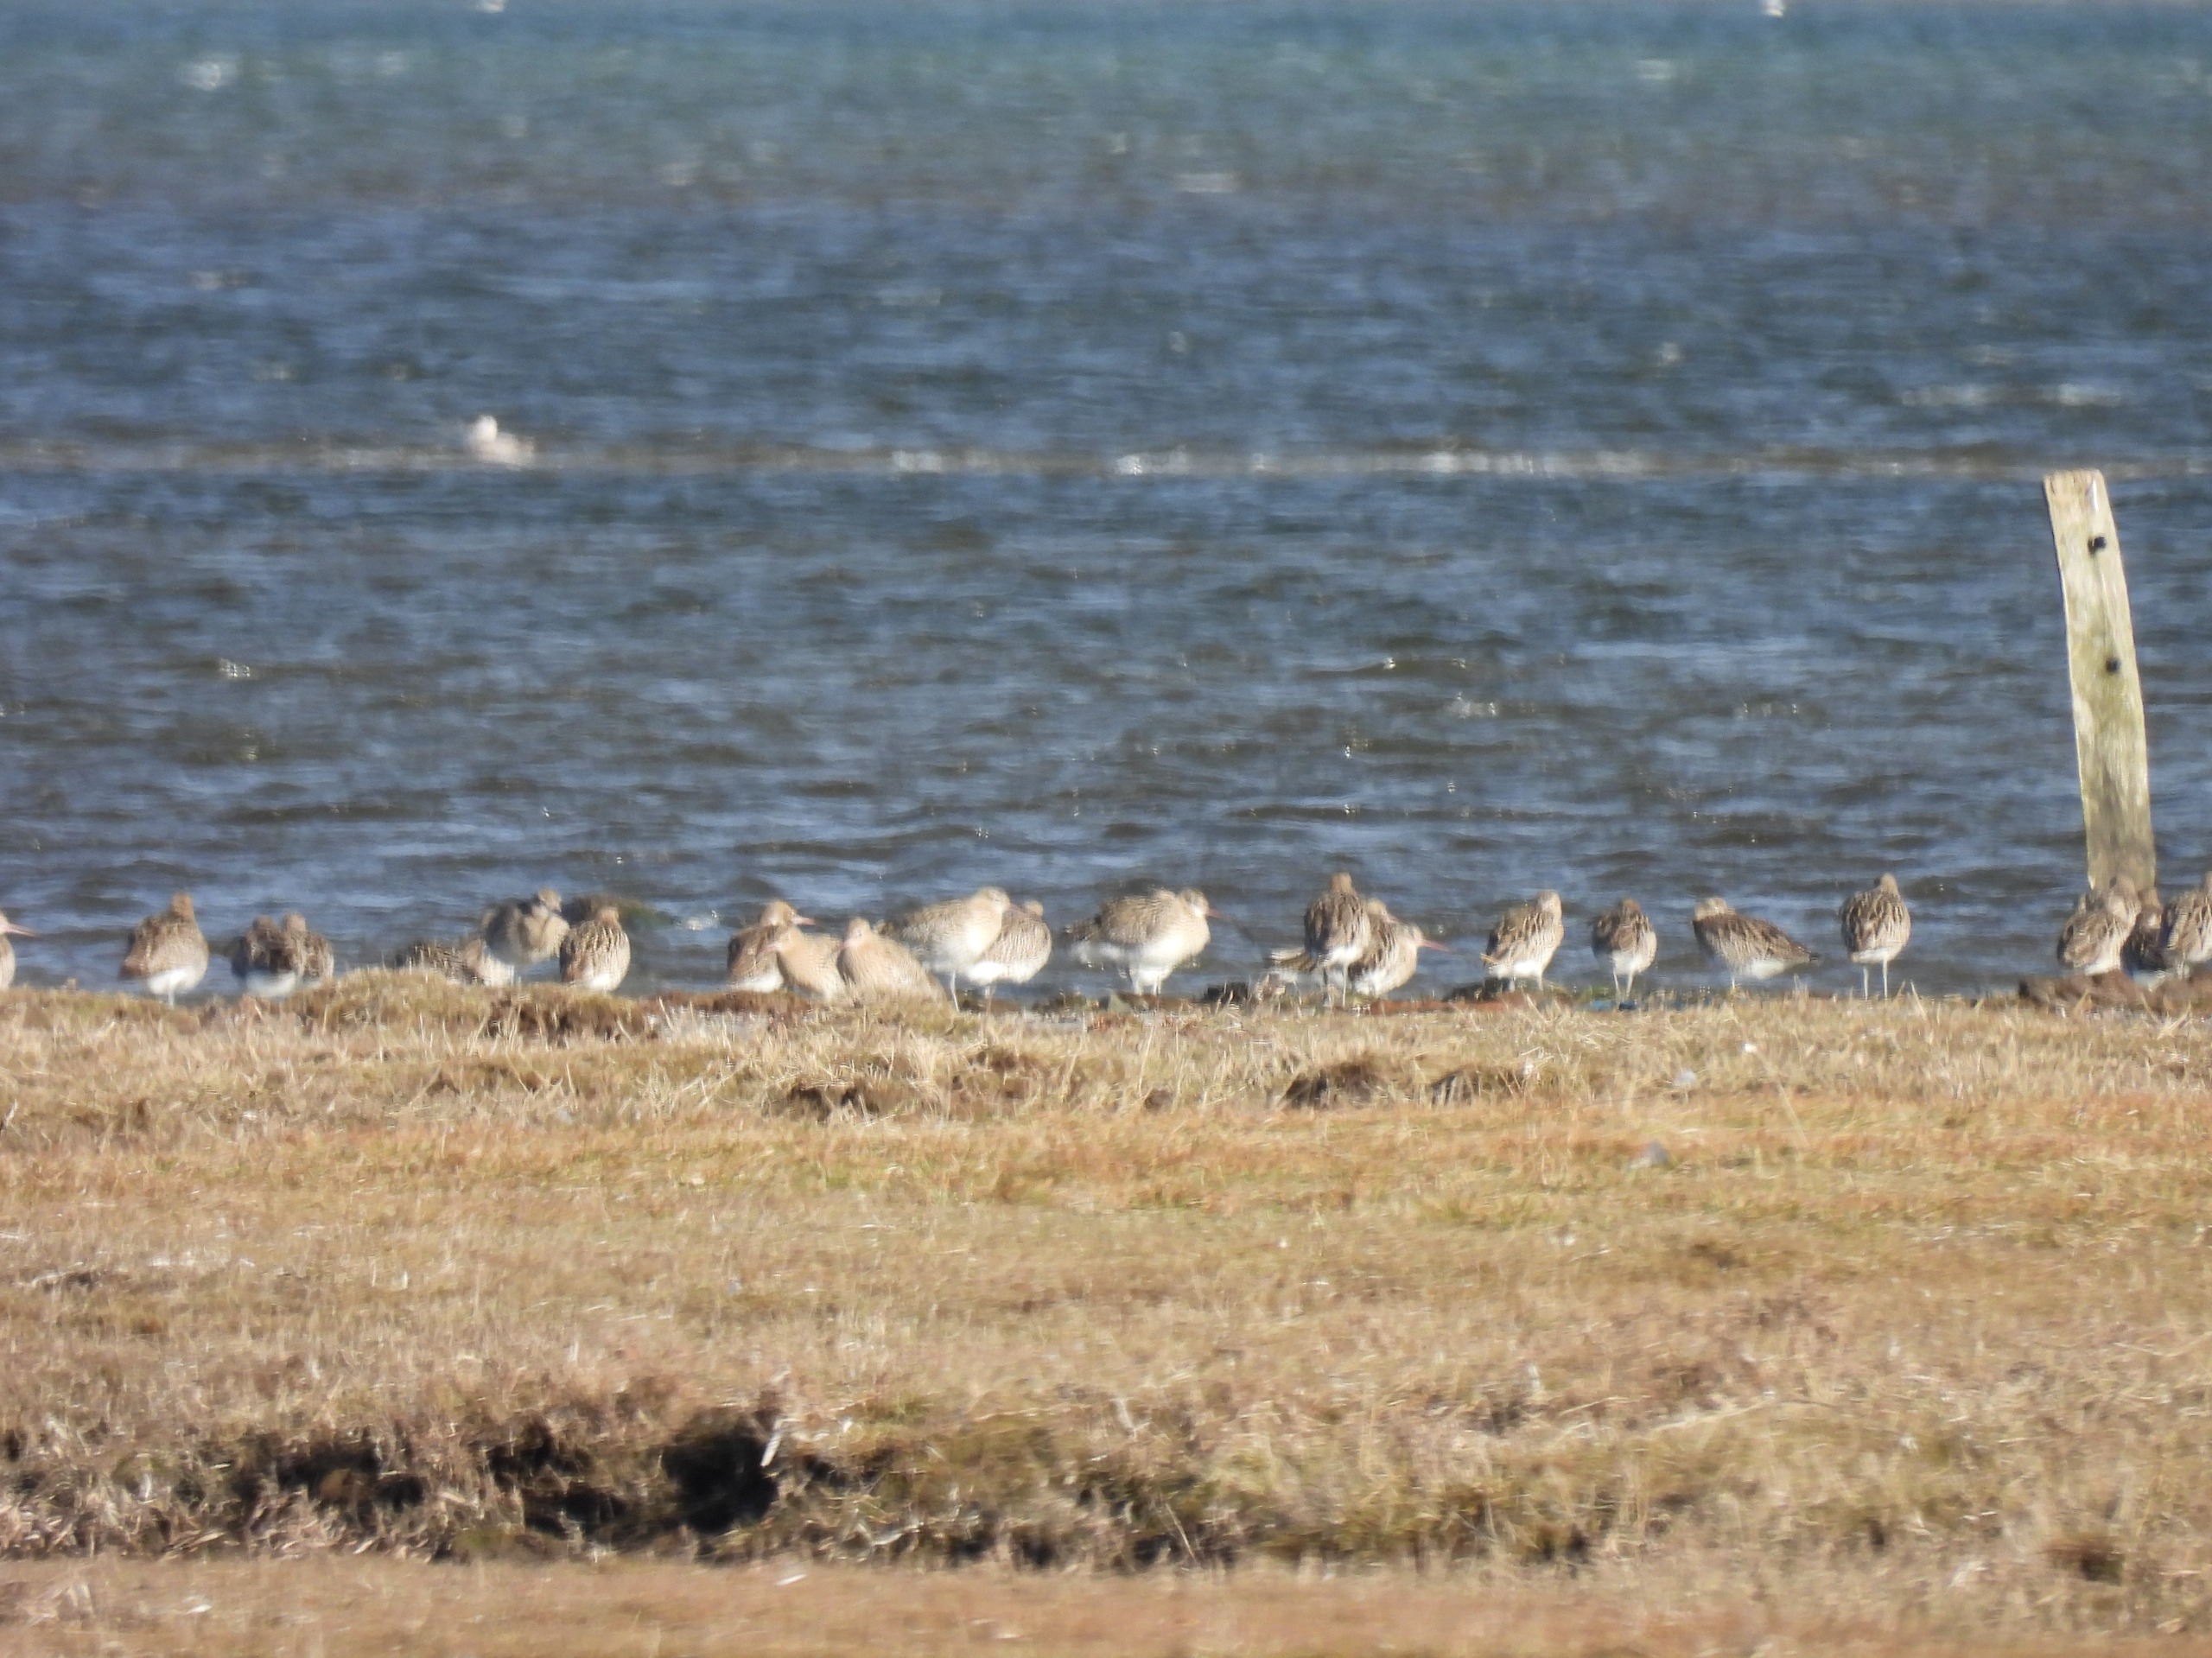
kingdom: Animalia
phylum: Chordata
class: Aves
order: Charadriiformes
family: Scolopacidae
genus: Numenius
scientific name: Numenius arquata
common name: Storspove
